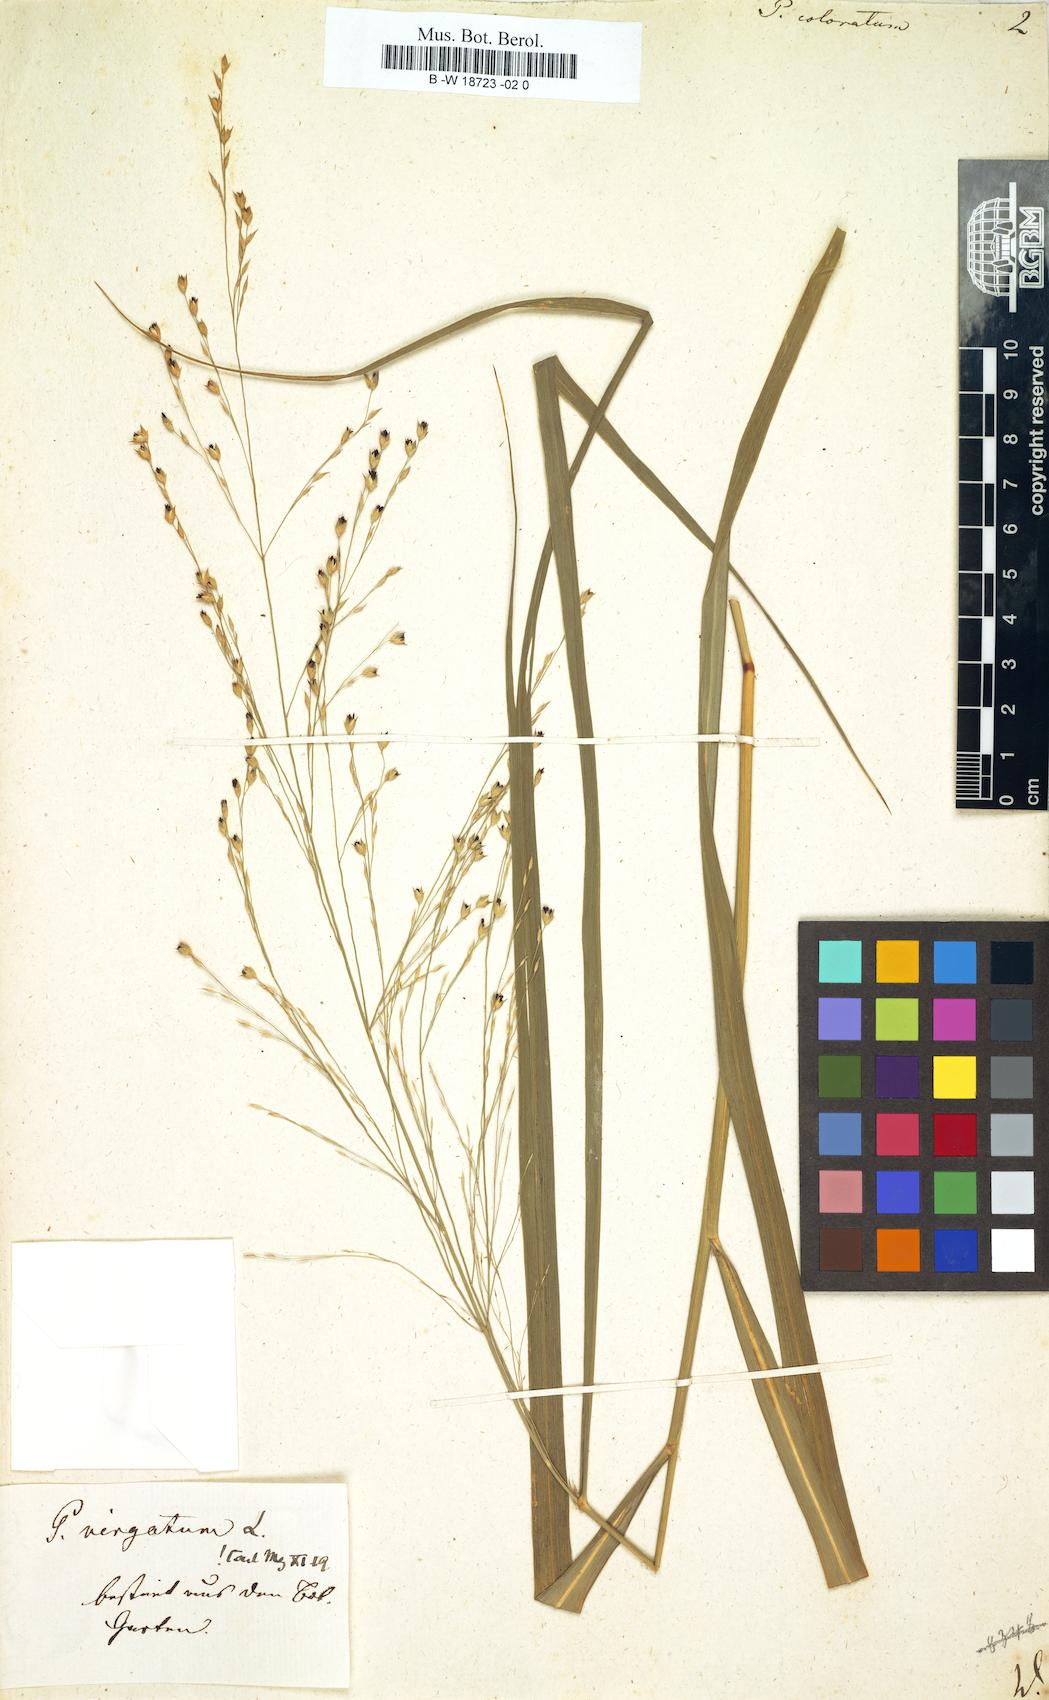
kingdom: Plantae
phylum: Tracheophyta
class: Liliopsida
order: Poales
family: Poaceae
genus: Panicum
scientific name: Panicum coloratum
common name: Kleingrass
